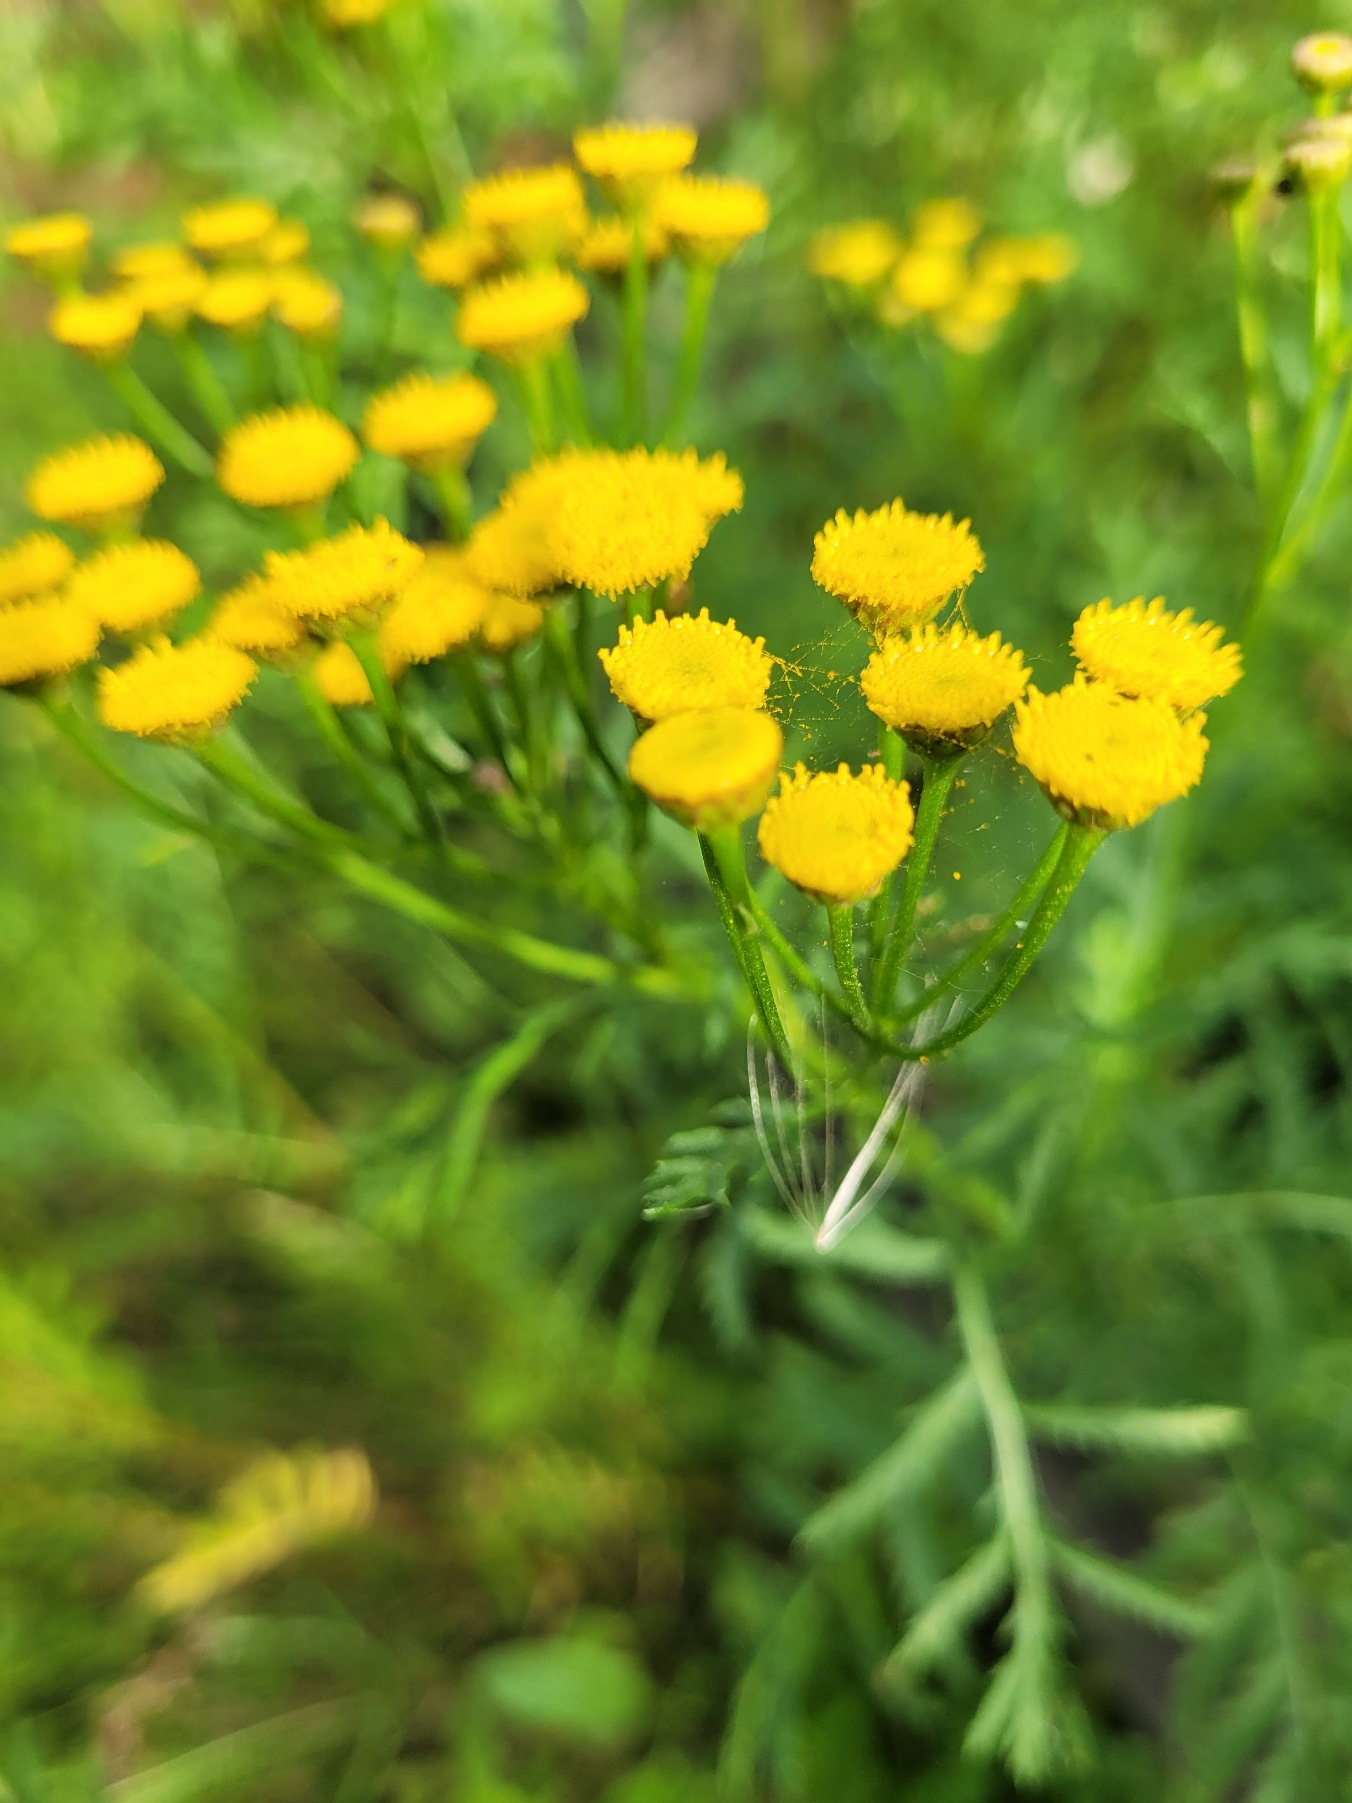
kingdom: Plantae
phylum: Tracheophyta
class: Magnoliopsida
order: Asterales
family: Asteraceae
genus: Tanacetum
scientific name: Tanacetum vulgare
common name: Rejnfan
